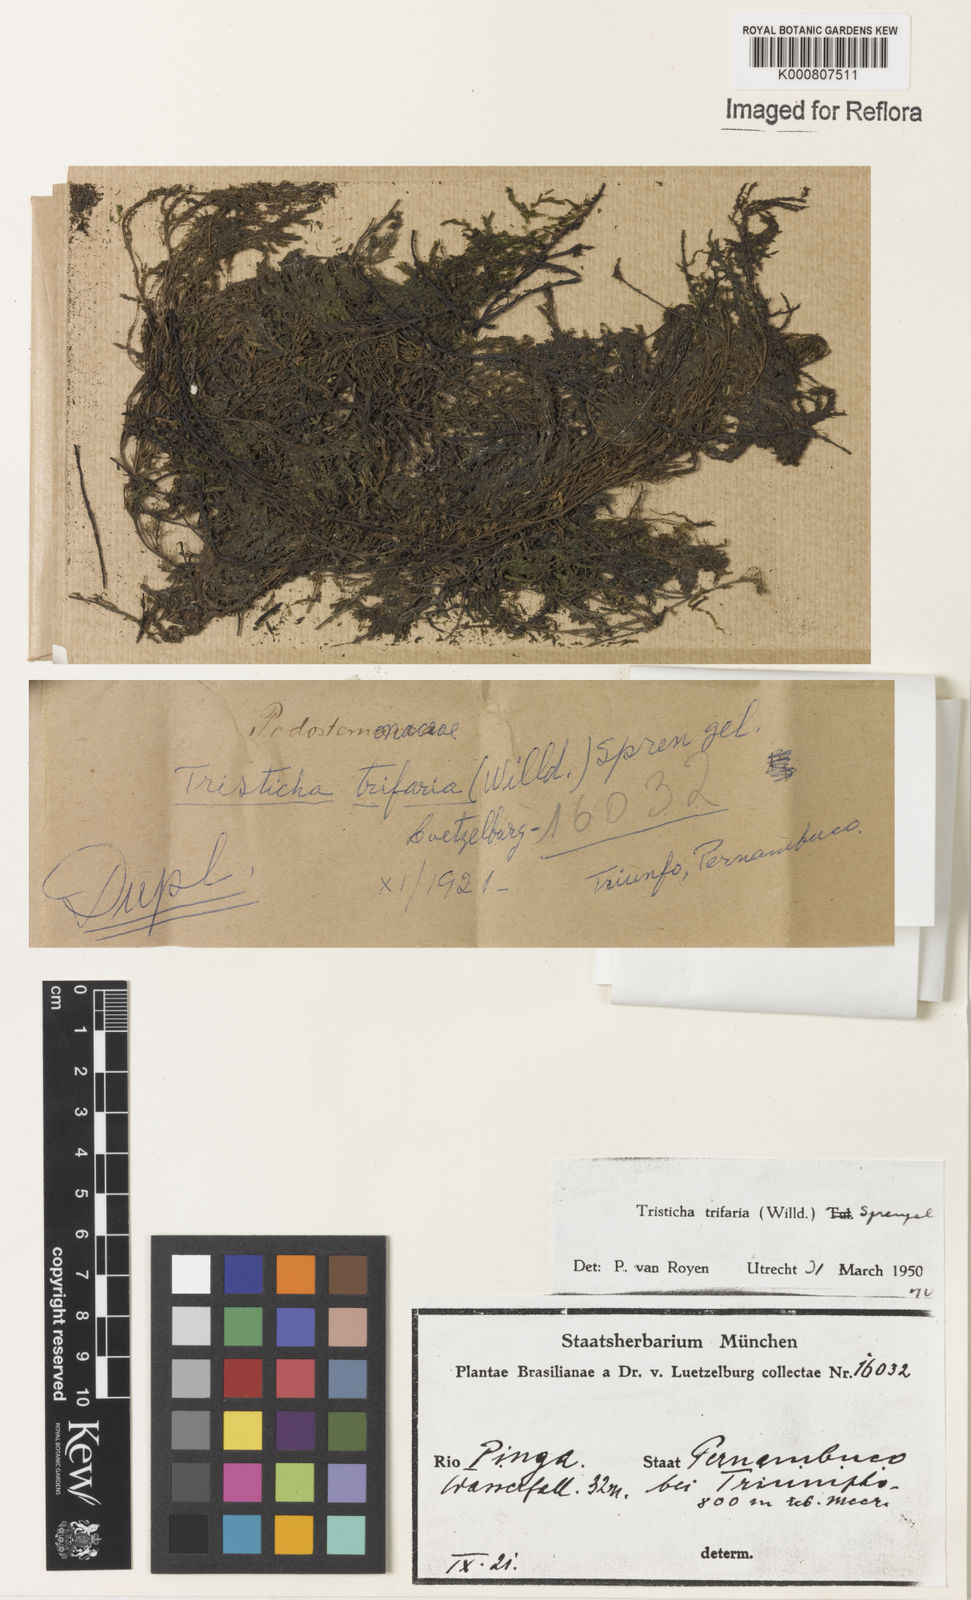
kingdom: Plantae
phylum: Tracheophyta
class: Magnoliopsida
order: Malpighiales
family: Podostemaceae
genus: Tristicha
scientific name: Tristicha trifaria
